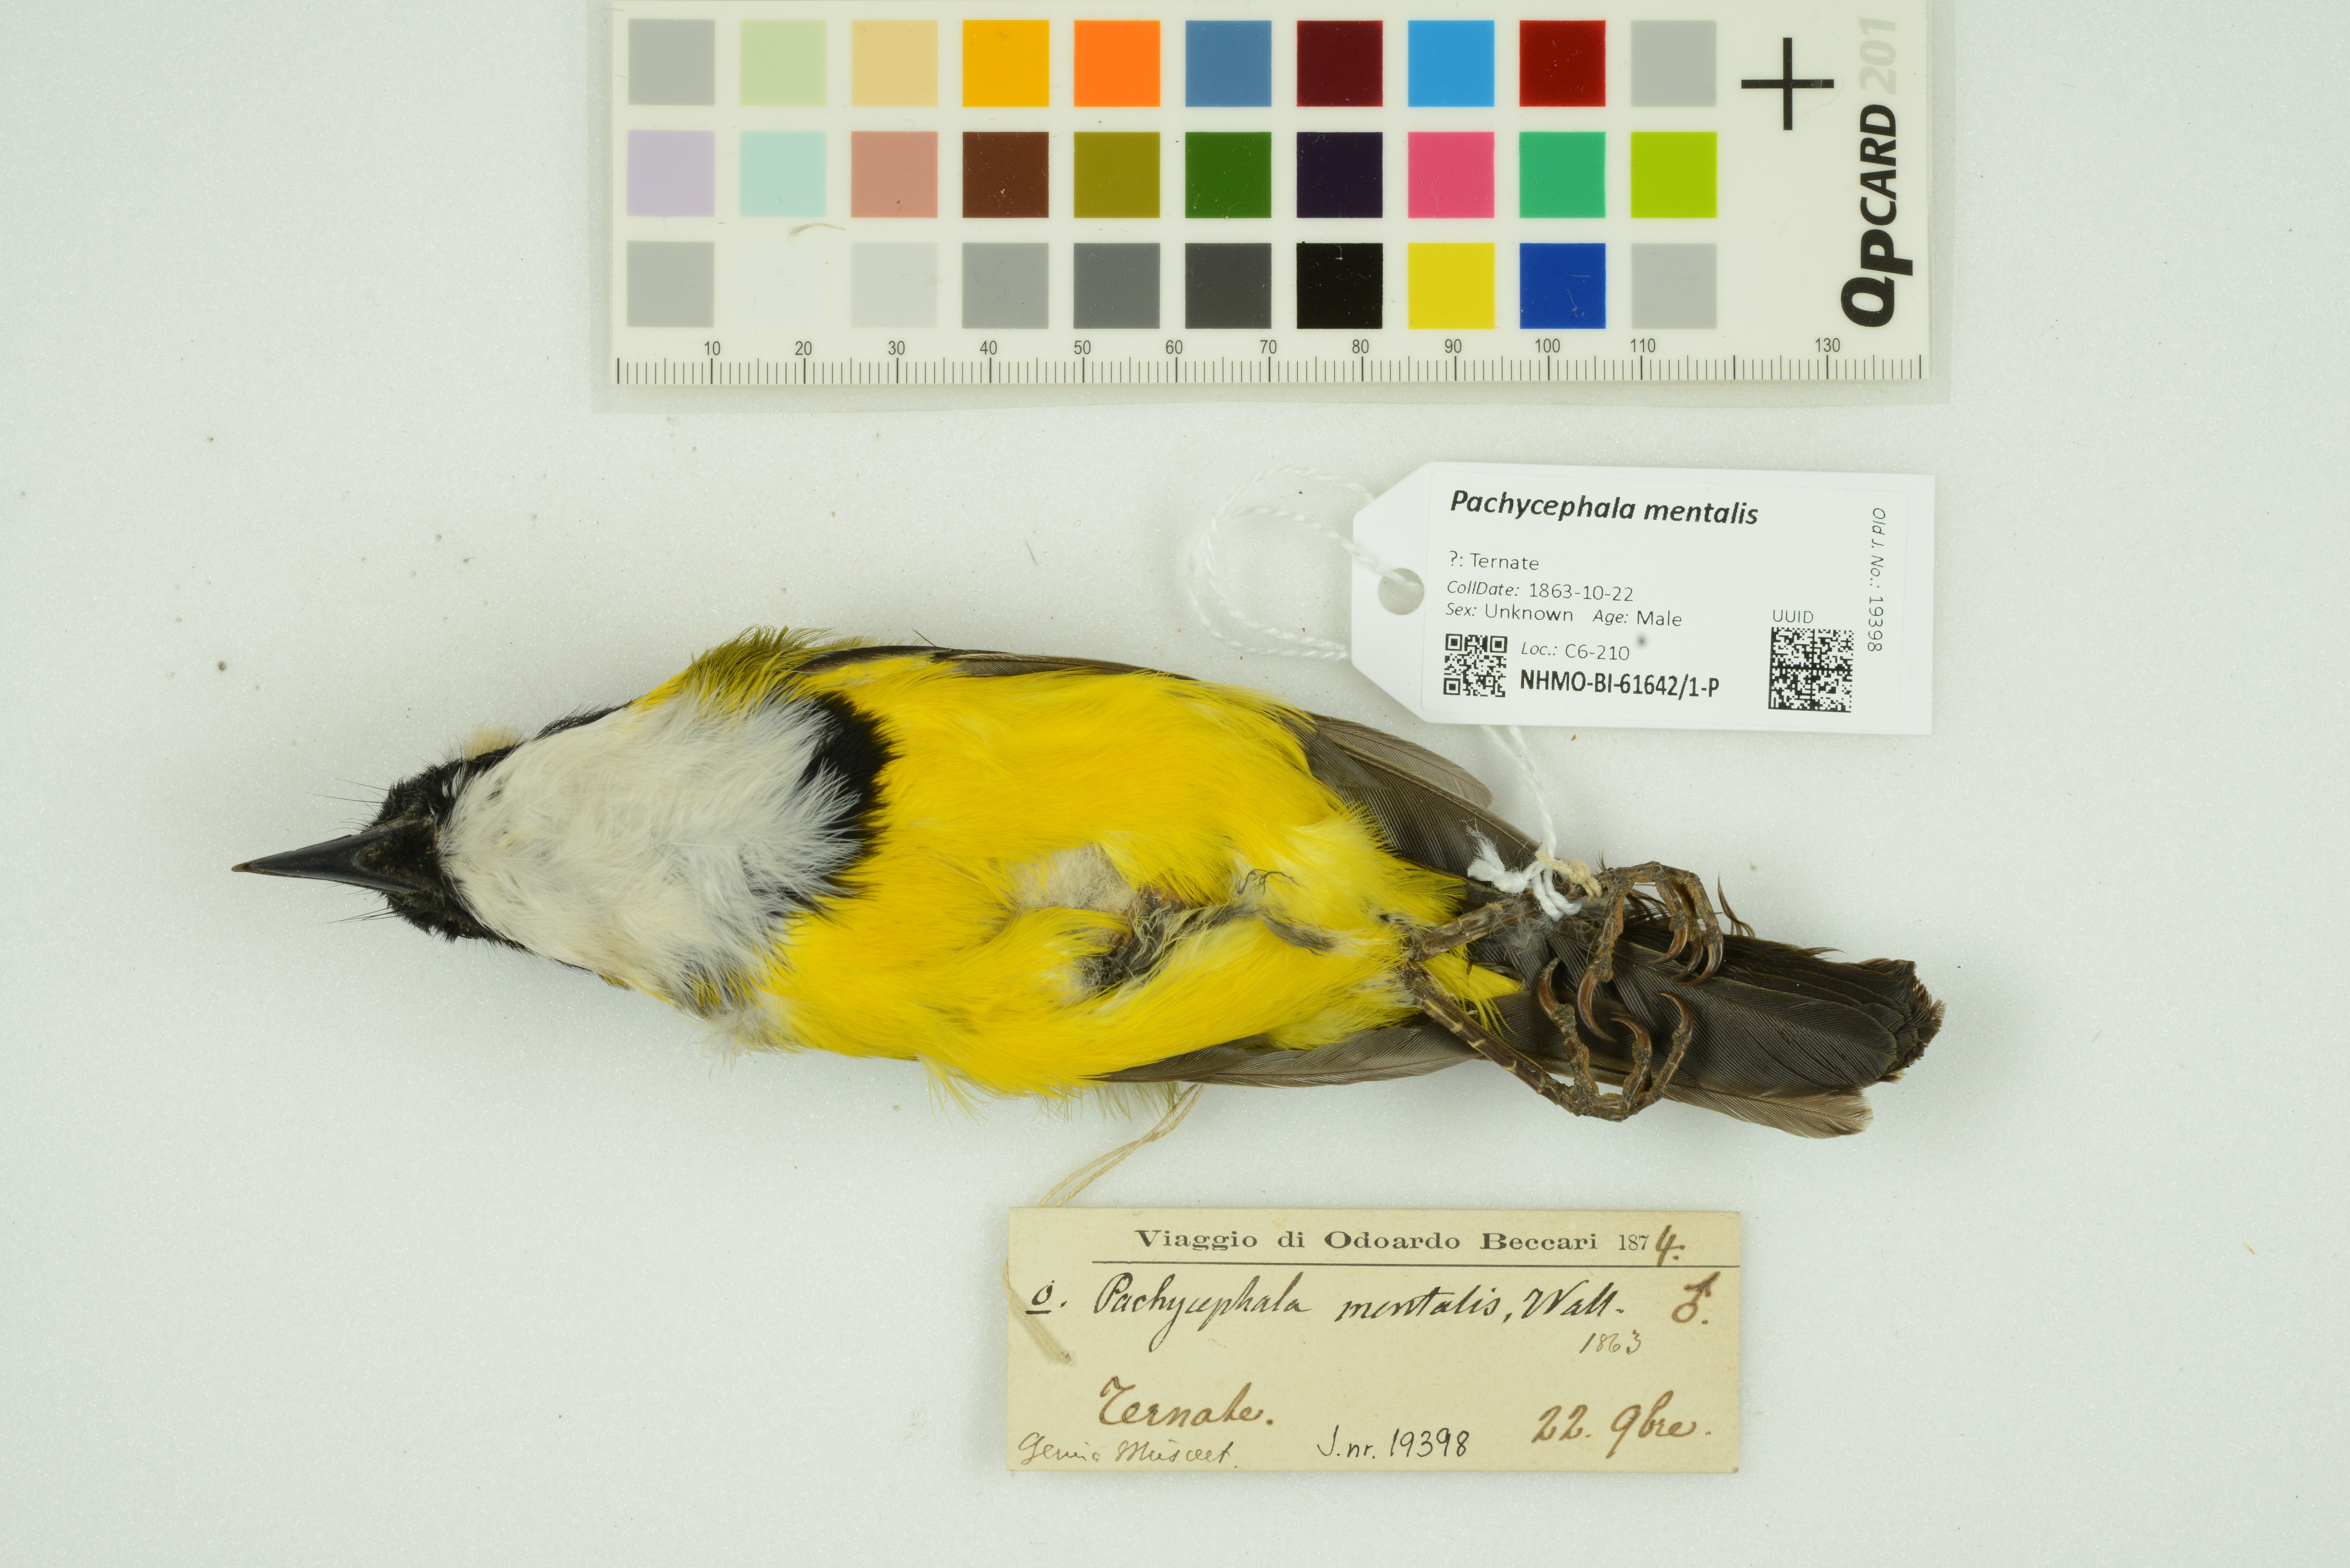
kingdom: Animalia
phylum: Chordata
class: Aves
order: Passeriformes
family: Pachycephalidae
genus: Pachycephala
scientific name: Pachycephala mentalis
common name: Black-chinned whistler
